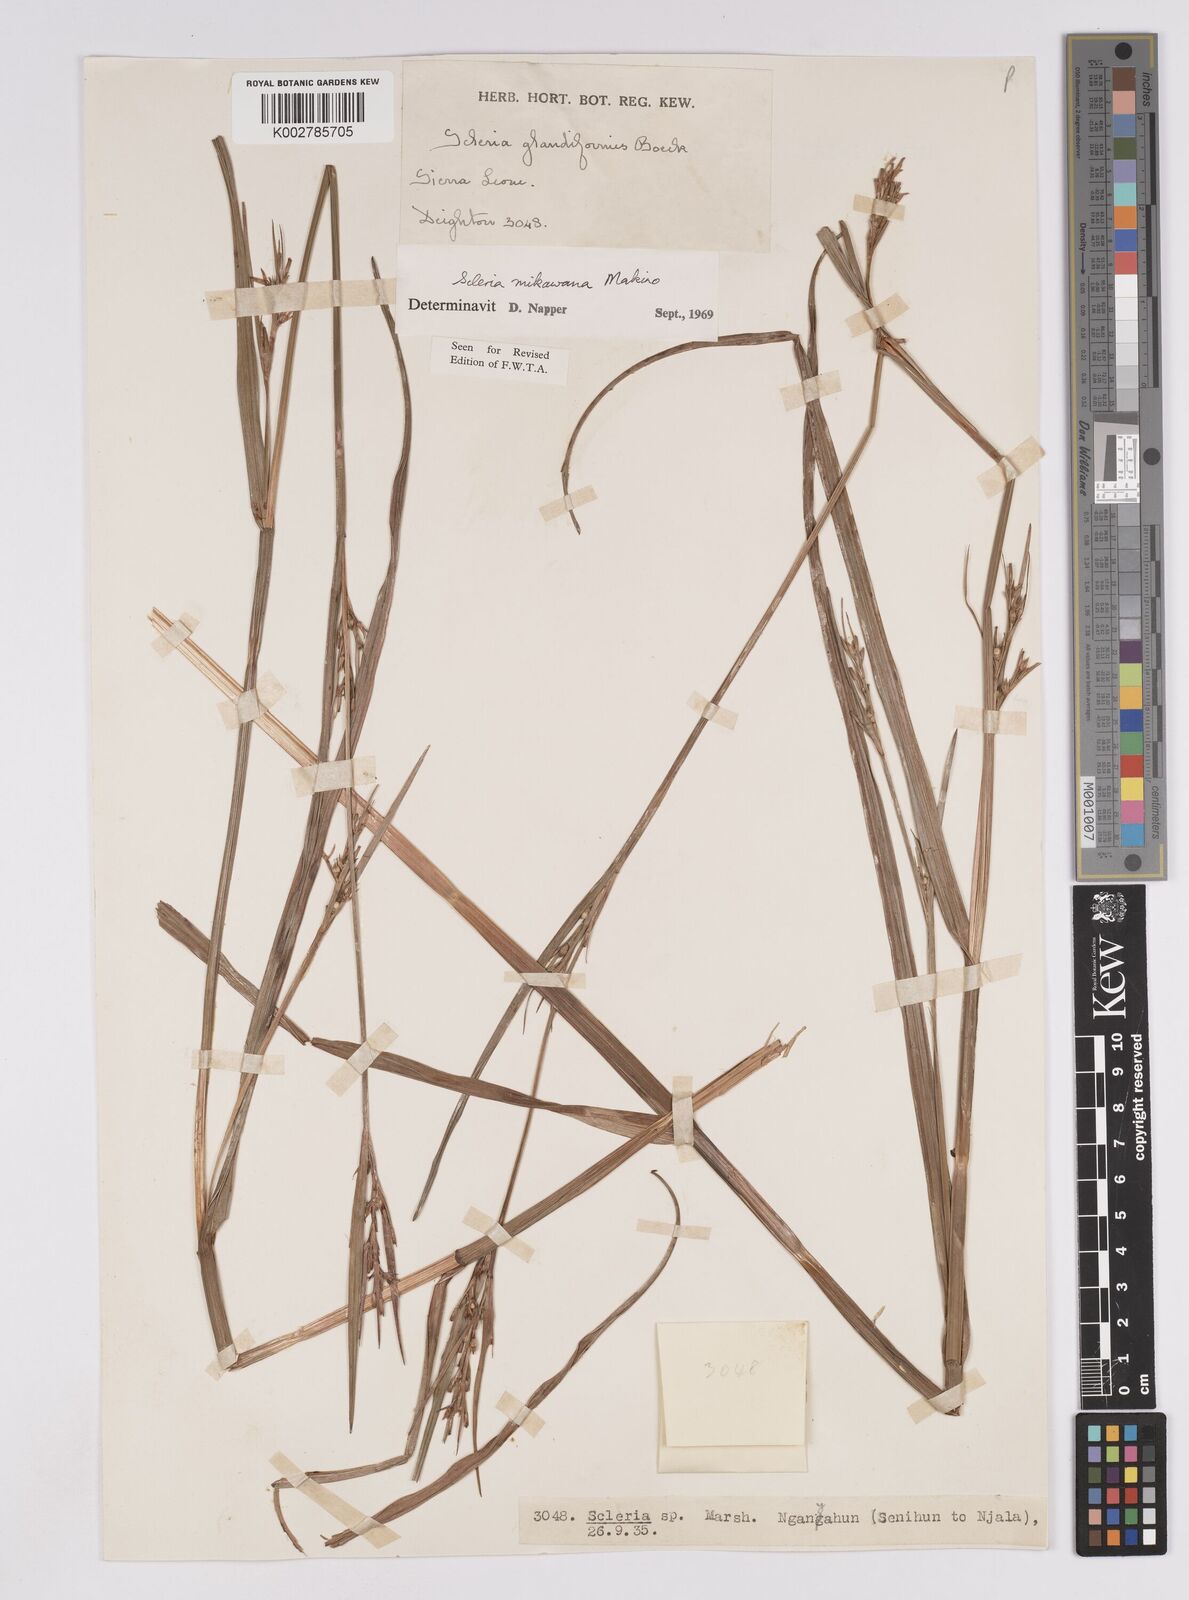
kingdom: Plantae
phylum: Tracheophyta
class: Liliopsida
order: Poales
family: Cyperaceae
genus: Scleria
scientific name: Scleria mikawana
